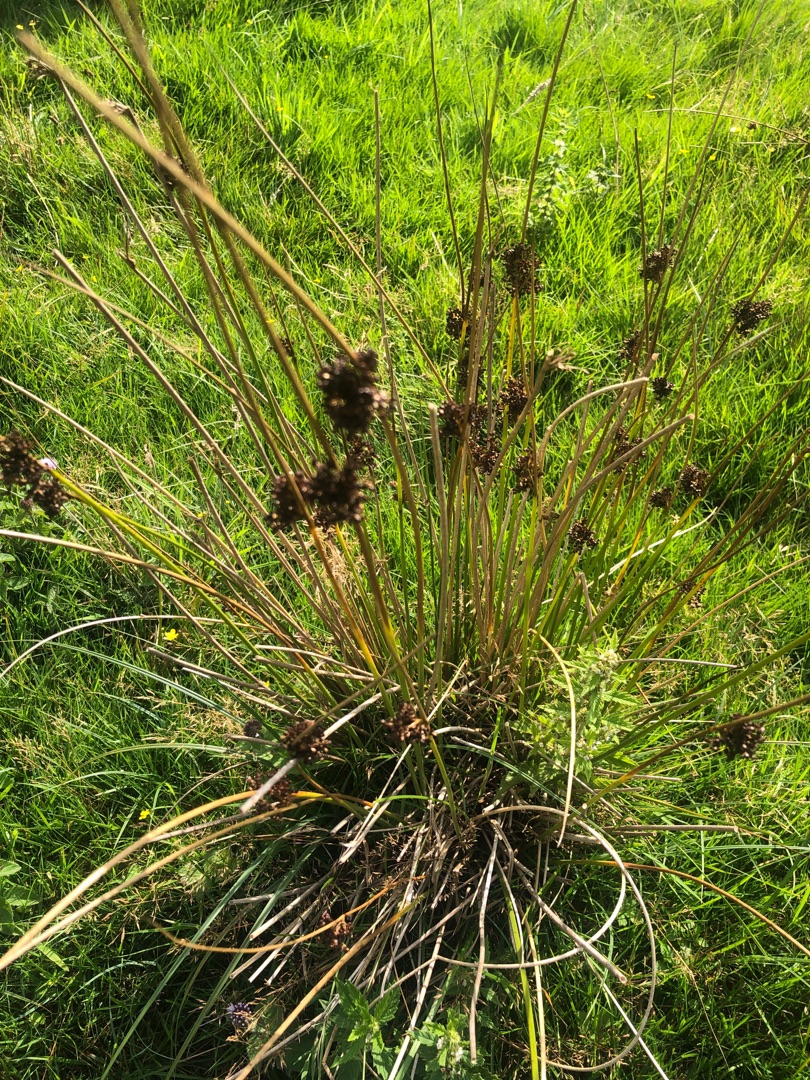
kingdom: Plantae
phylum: Tracheophyta
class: Liliopsida
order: Poales
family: Juncaceae
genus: Juncus
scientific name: Juncus effusus
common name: Lyse-siv
